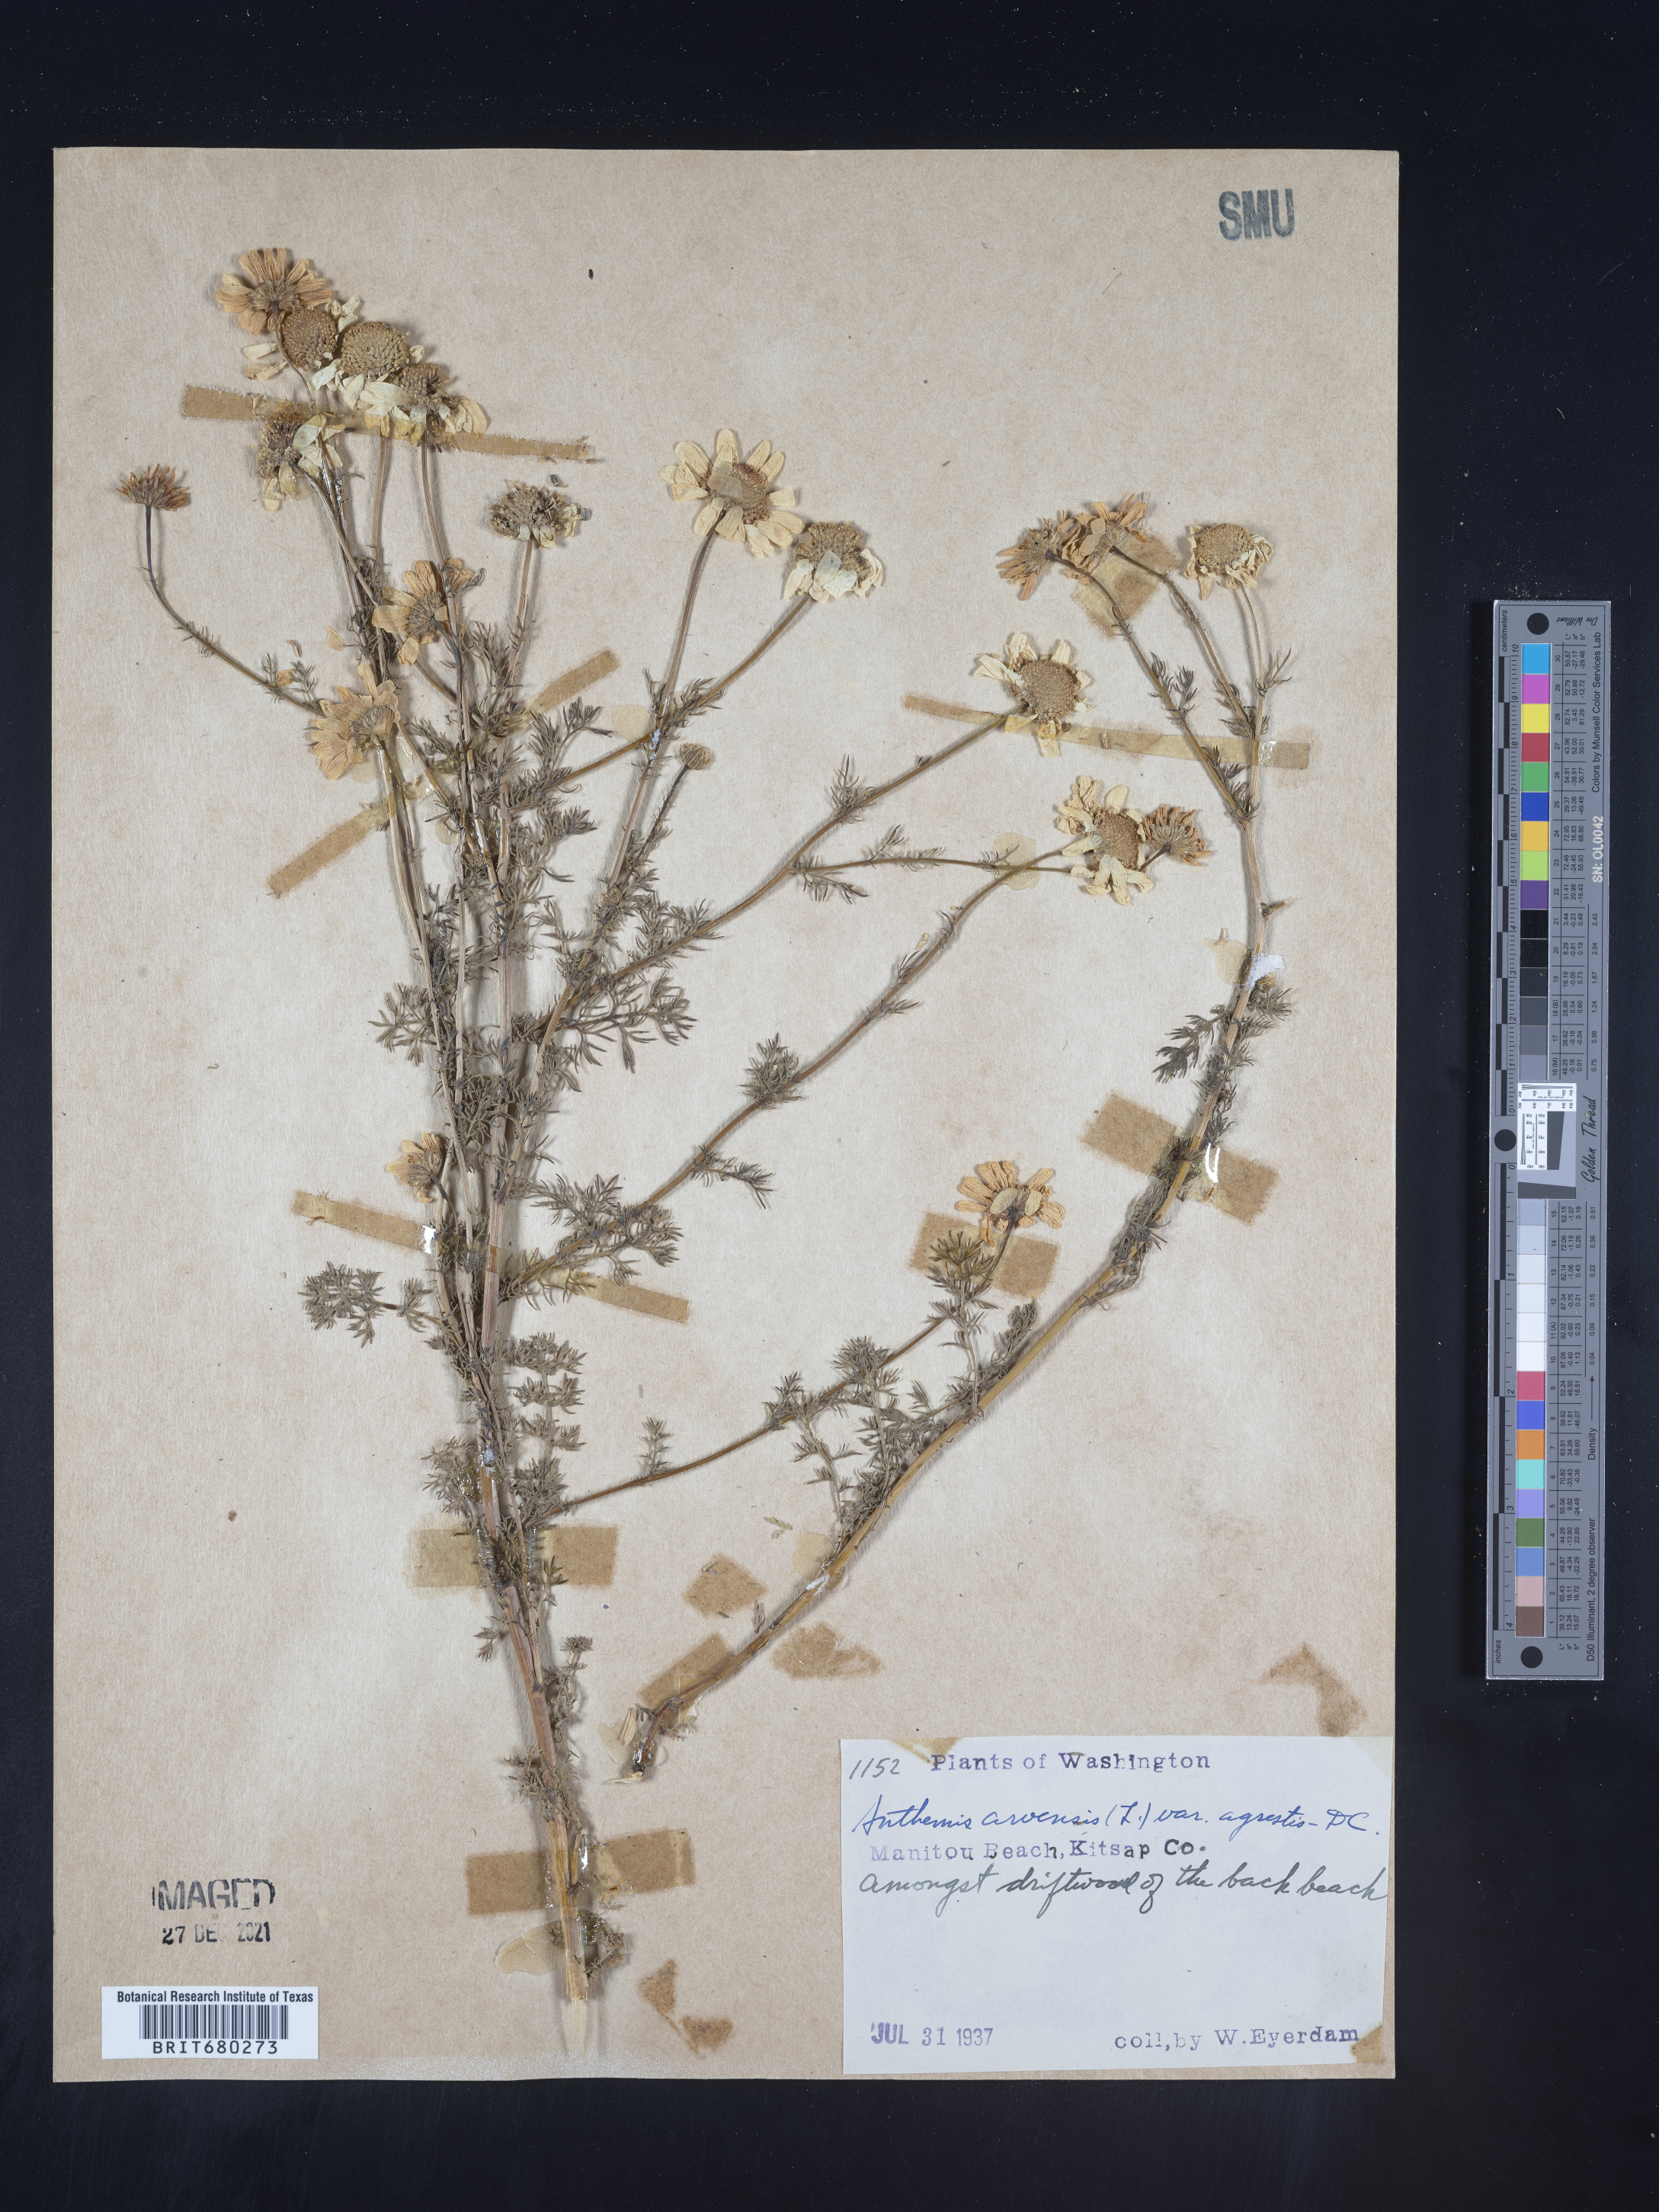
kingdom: Plantae
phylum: Tracheophyta
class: Magnoliopsida
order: Asterales
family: Asteraceae
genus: Anthemis
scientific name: Anthemis arvensis
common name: Corn chamomile
